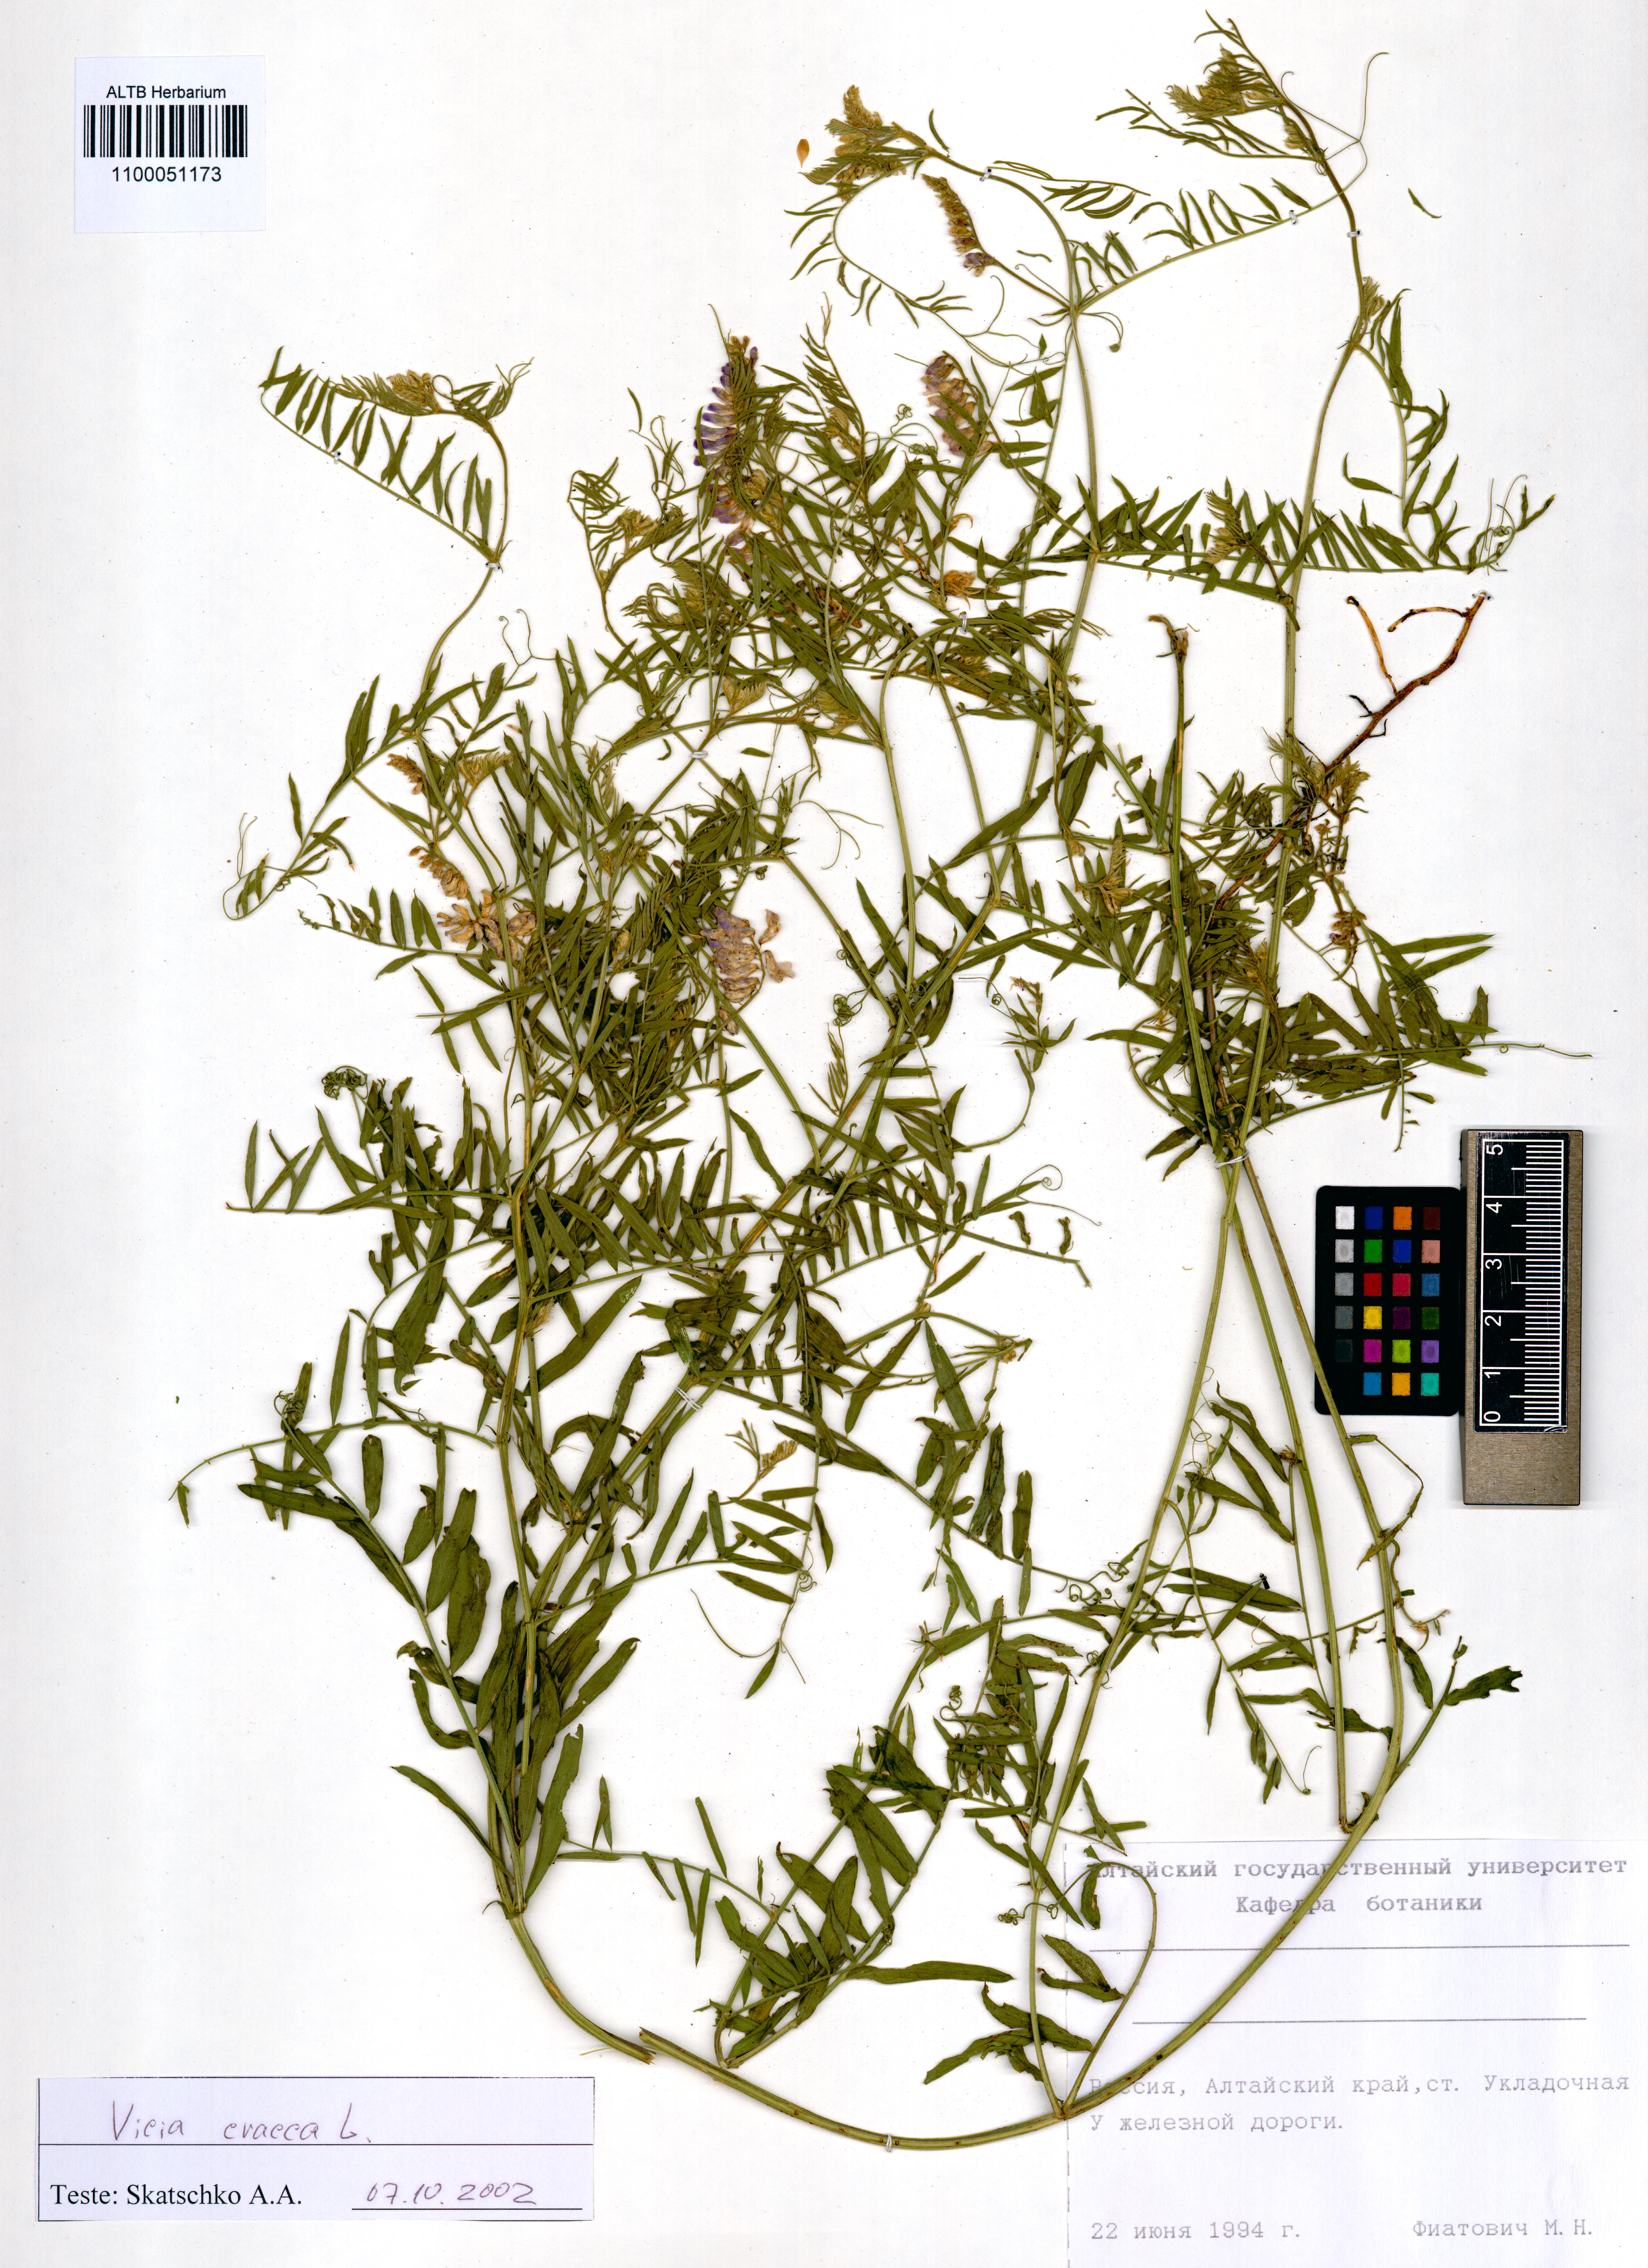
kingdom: Plantae
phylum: Tracheophyta
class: Magnoliopsida
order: Fabales
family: Fabaceae
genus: Vicia
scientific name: Vicia cracca
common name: Bird vetch
